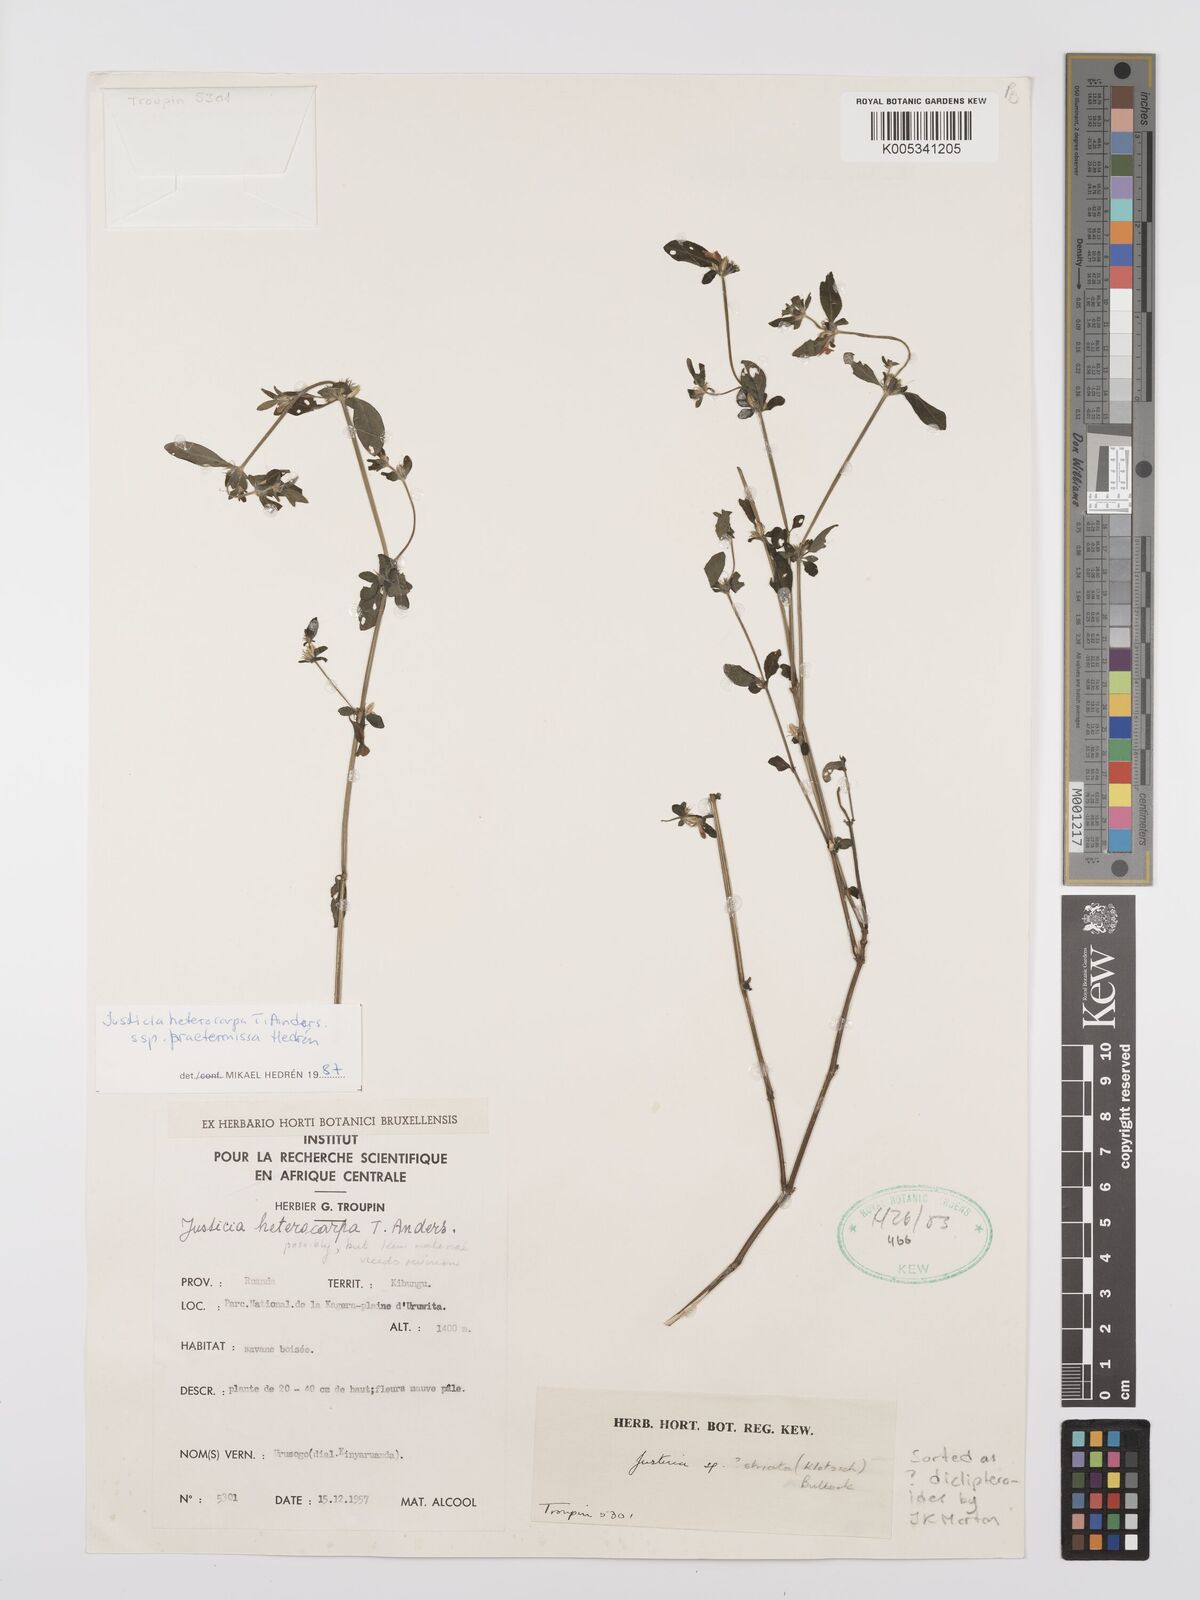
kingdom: Plantae
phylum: Tracheophyta
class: Magnoliopsida
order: Lamiales
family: Acanthaceae
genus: Justicia
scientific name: Justicia heterocarpa
